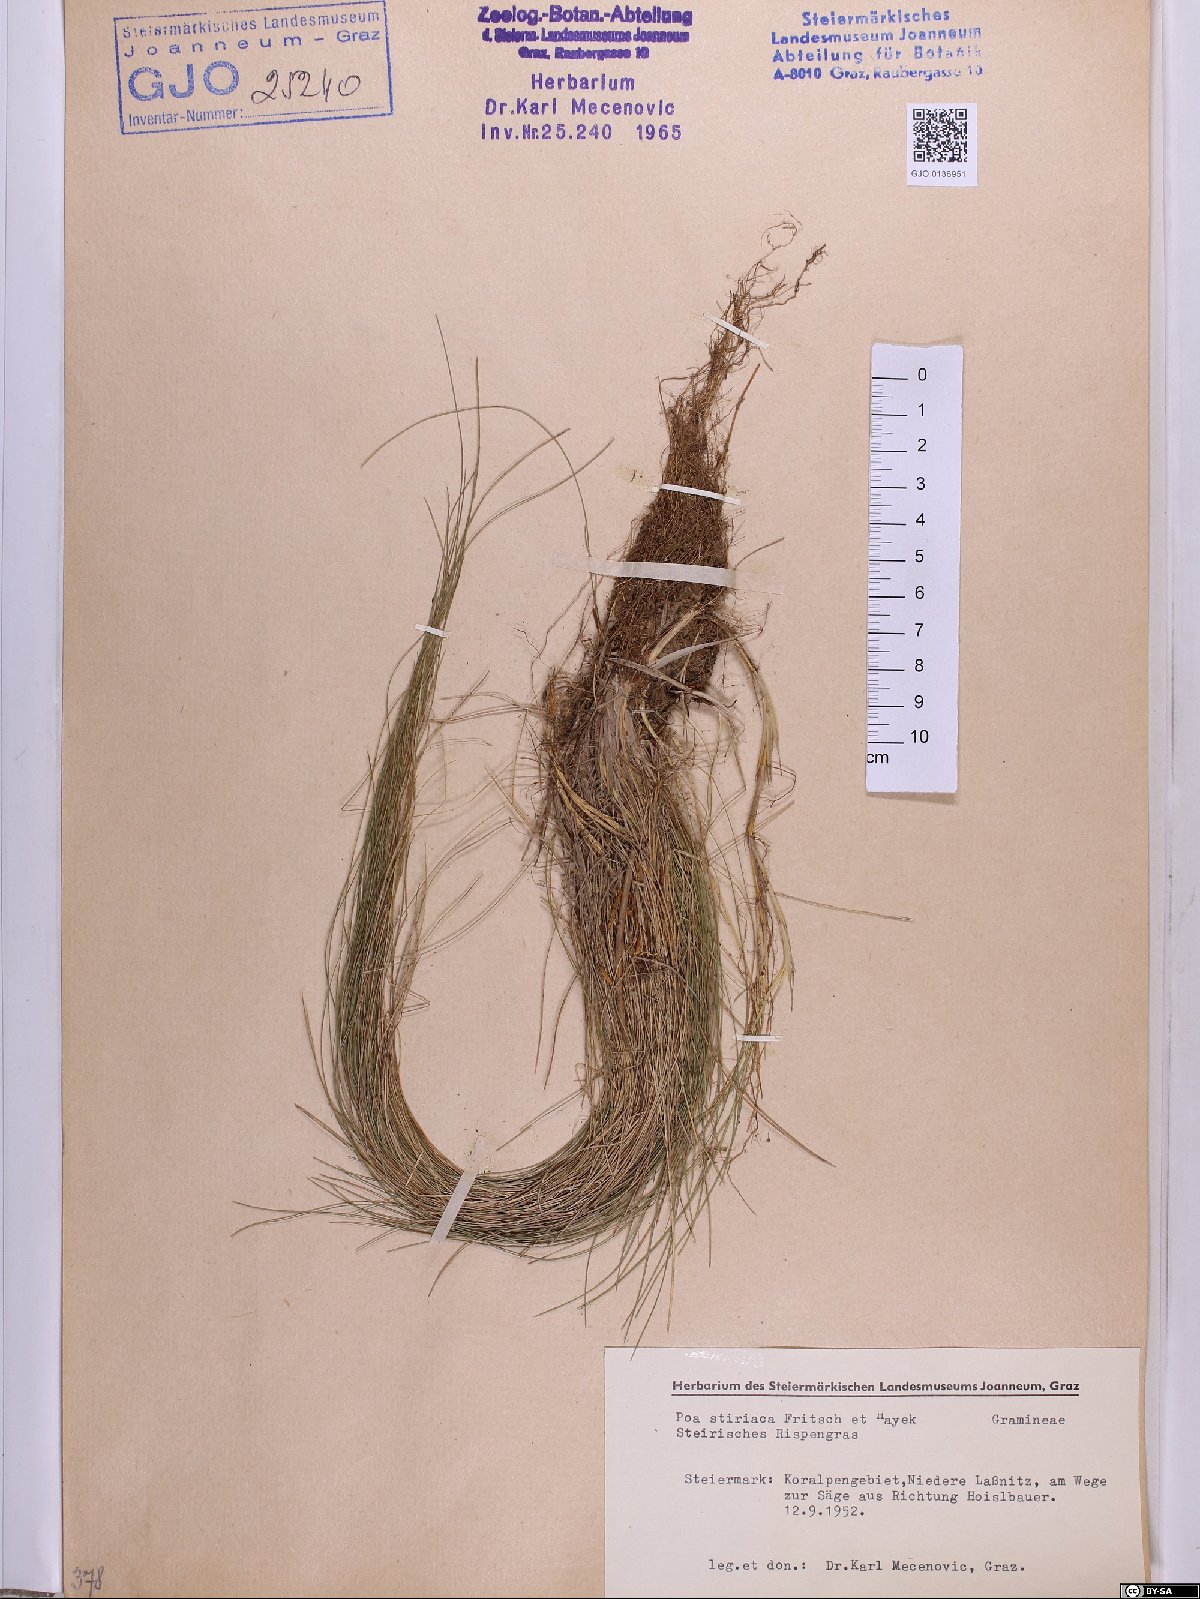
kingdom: Plantae
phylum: Tracheophyta
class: Liliopsida
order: Poales
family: Poaceae
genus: Poa
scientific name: Poa stiriaca
